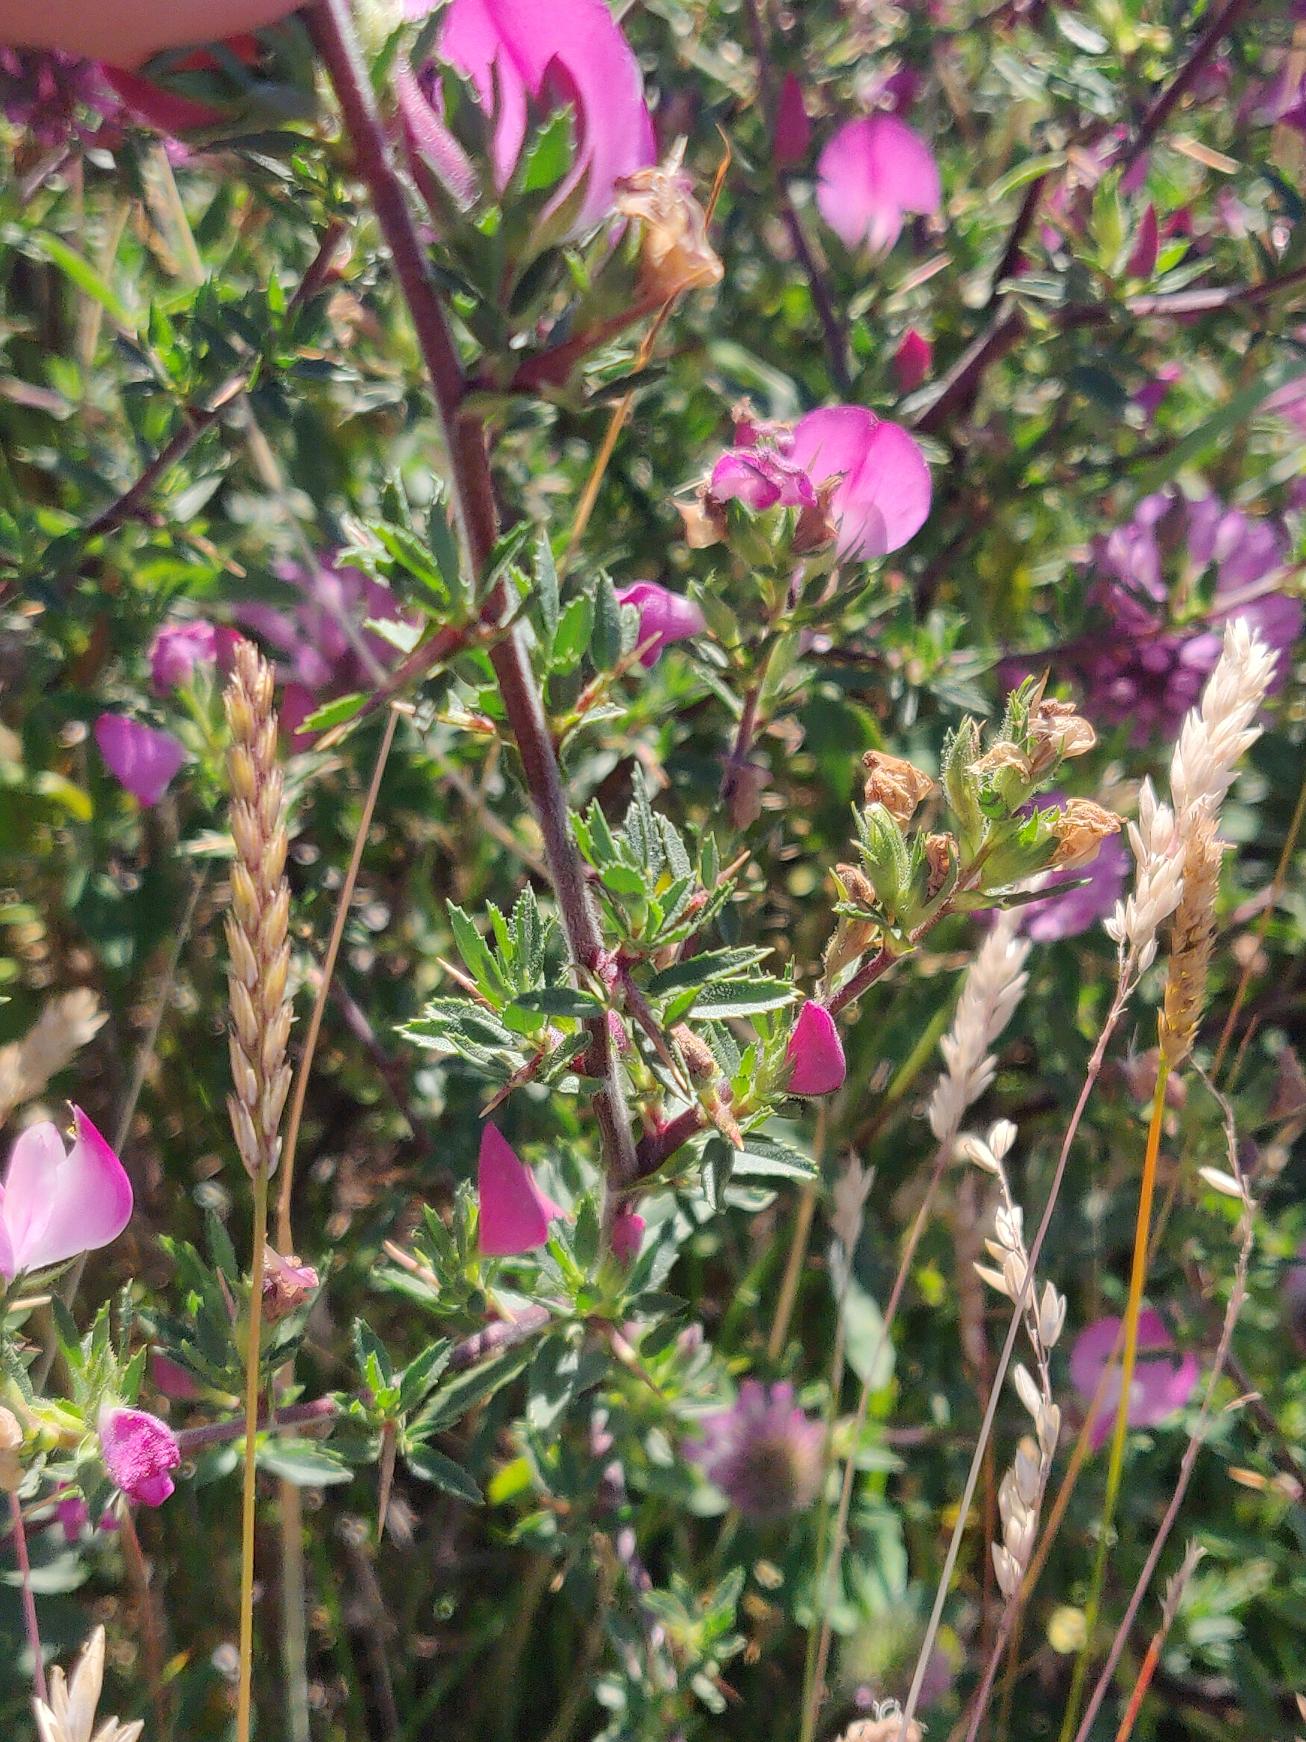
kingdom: Plantae
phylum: Tracheophyta
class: Magnoliopsida
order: Fabales
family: Fabaceae
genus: Ononis
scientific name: Ononis spinosa
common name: Strand-krageklo
